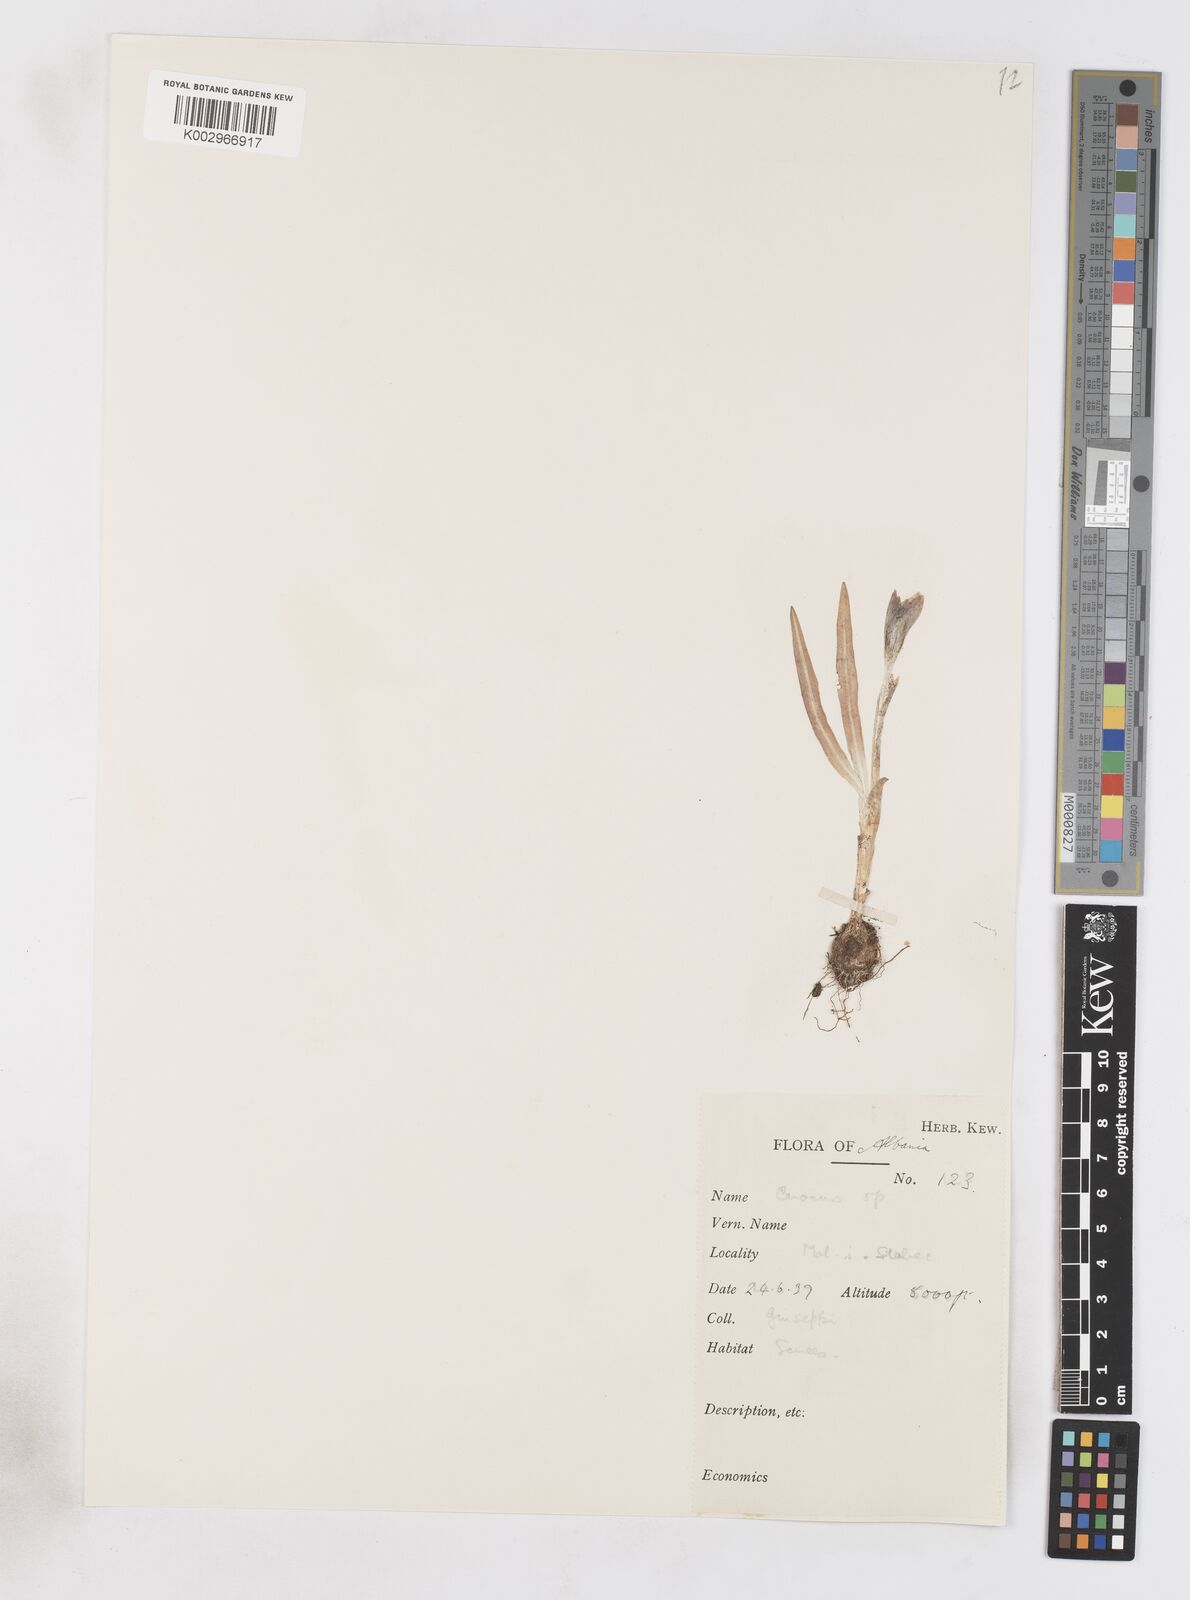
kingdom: Plantae
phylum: Tracheophyta
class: Liliopsida
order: Asparagales
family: Iridaceae
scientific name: Iridaceae
